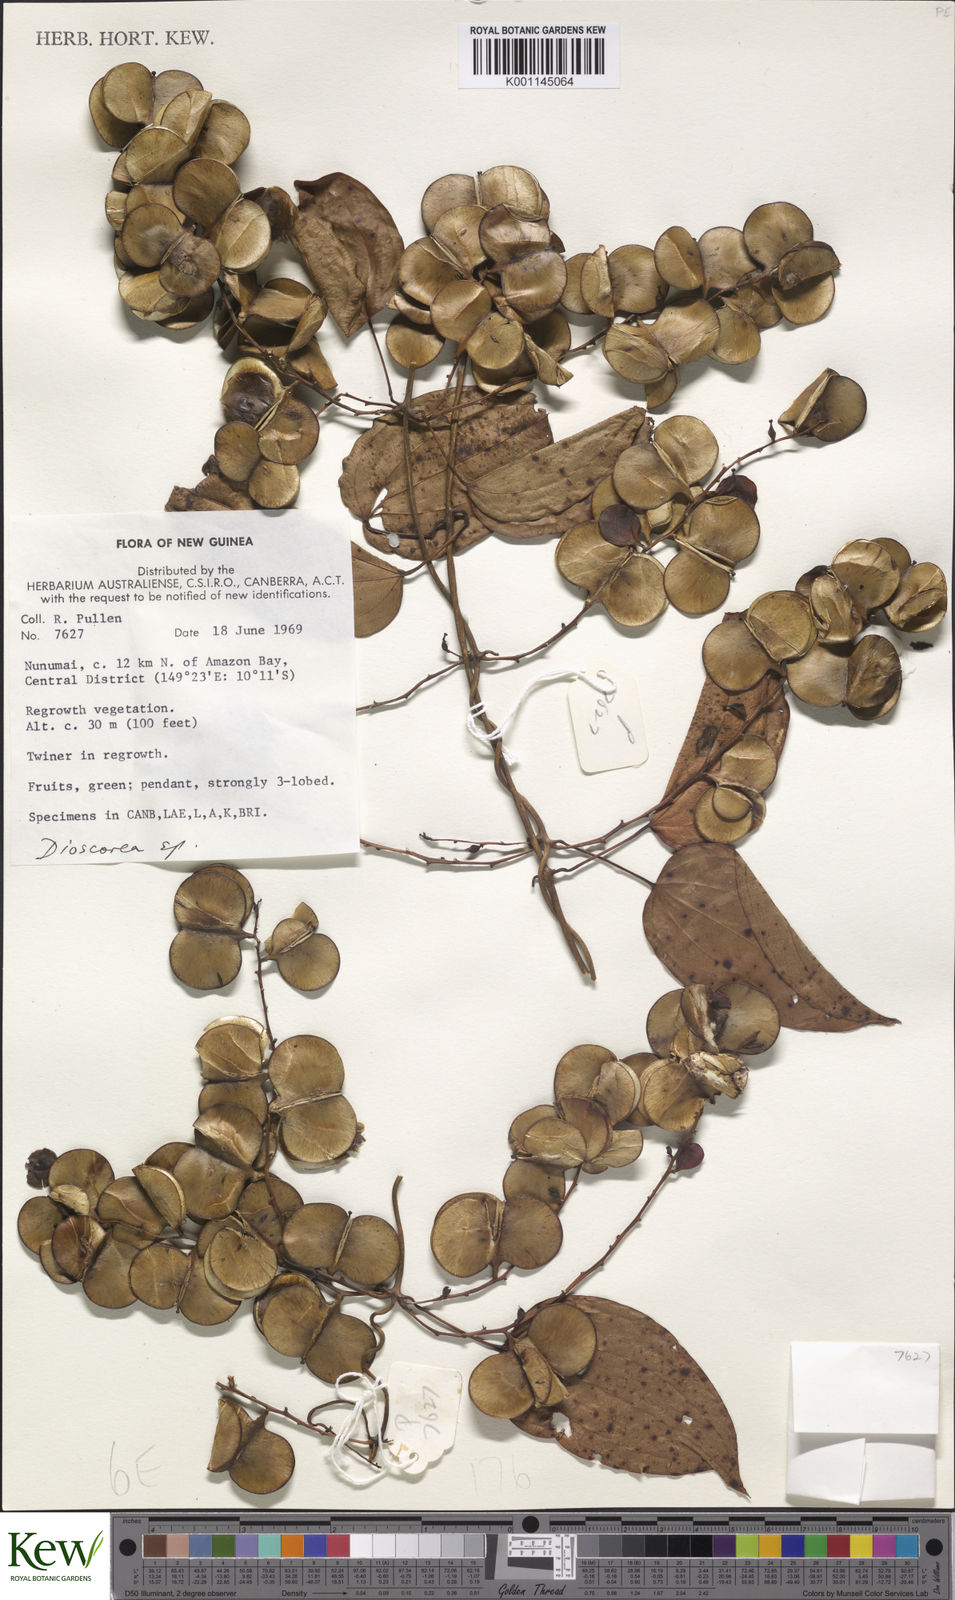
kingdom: Plantae
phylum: Tracheophyta
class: Liliopsida
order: Dioscoreales
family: Dioscoreaceae
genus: Dioscorea
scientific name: Dioscorea
